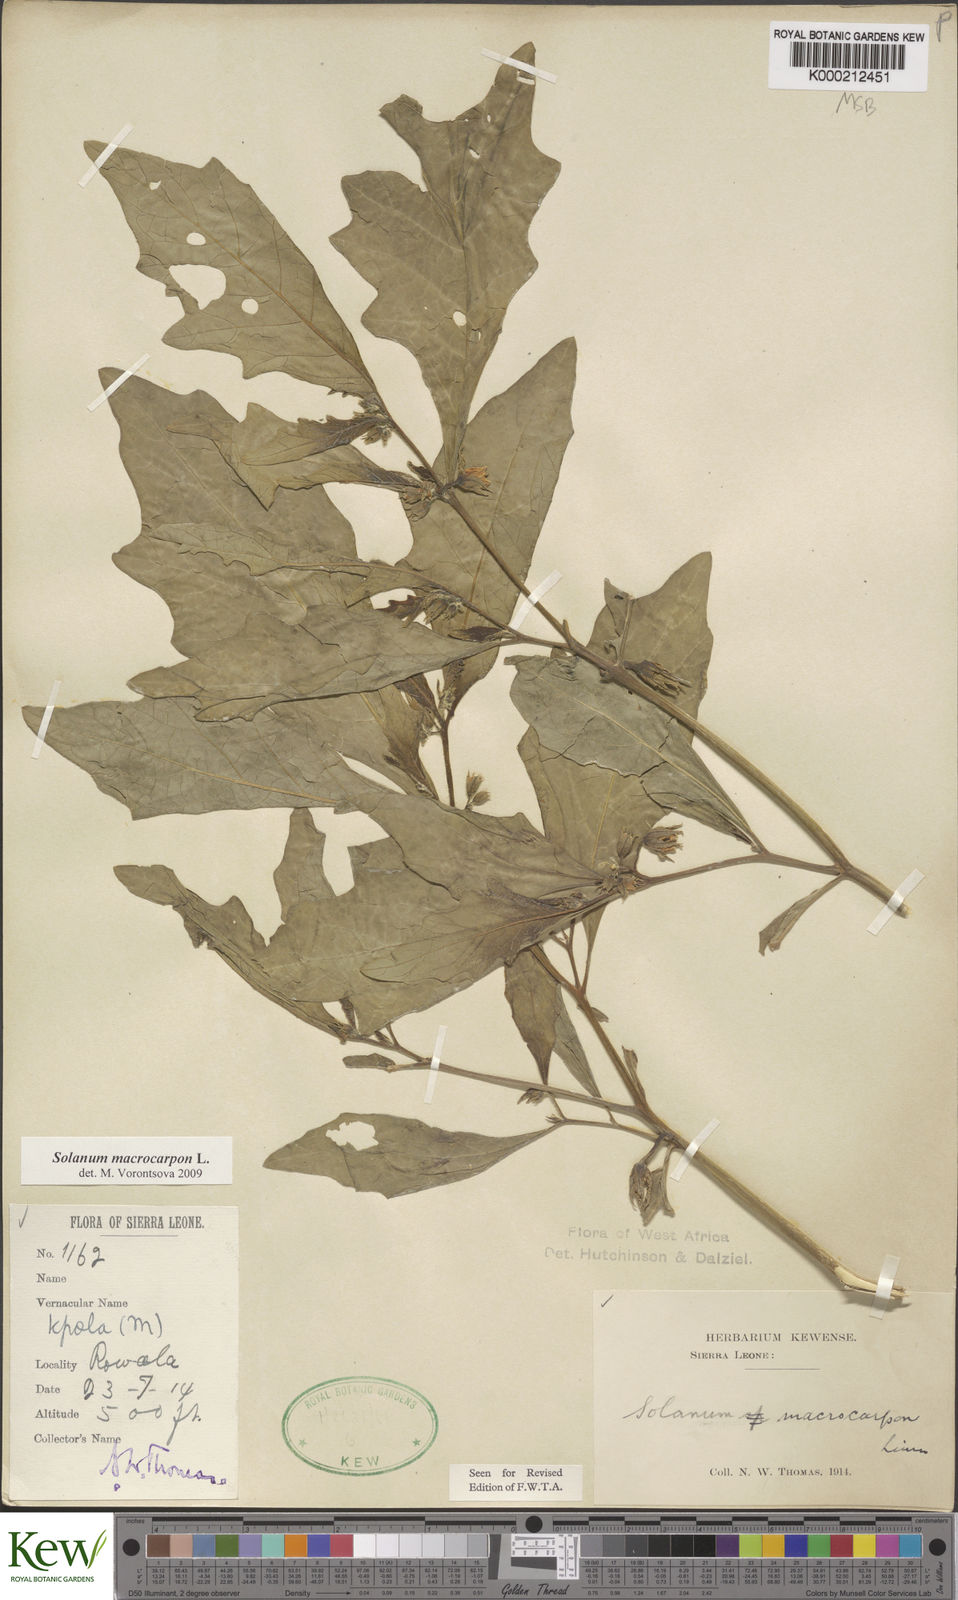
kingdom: Plantae
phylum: Tracheophyta
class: Magnoliopsida
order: Solanales
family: Solanaceae
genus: Solanum
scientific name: Solanum macrocarpon
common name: African eggplant
